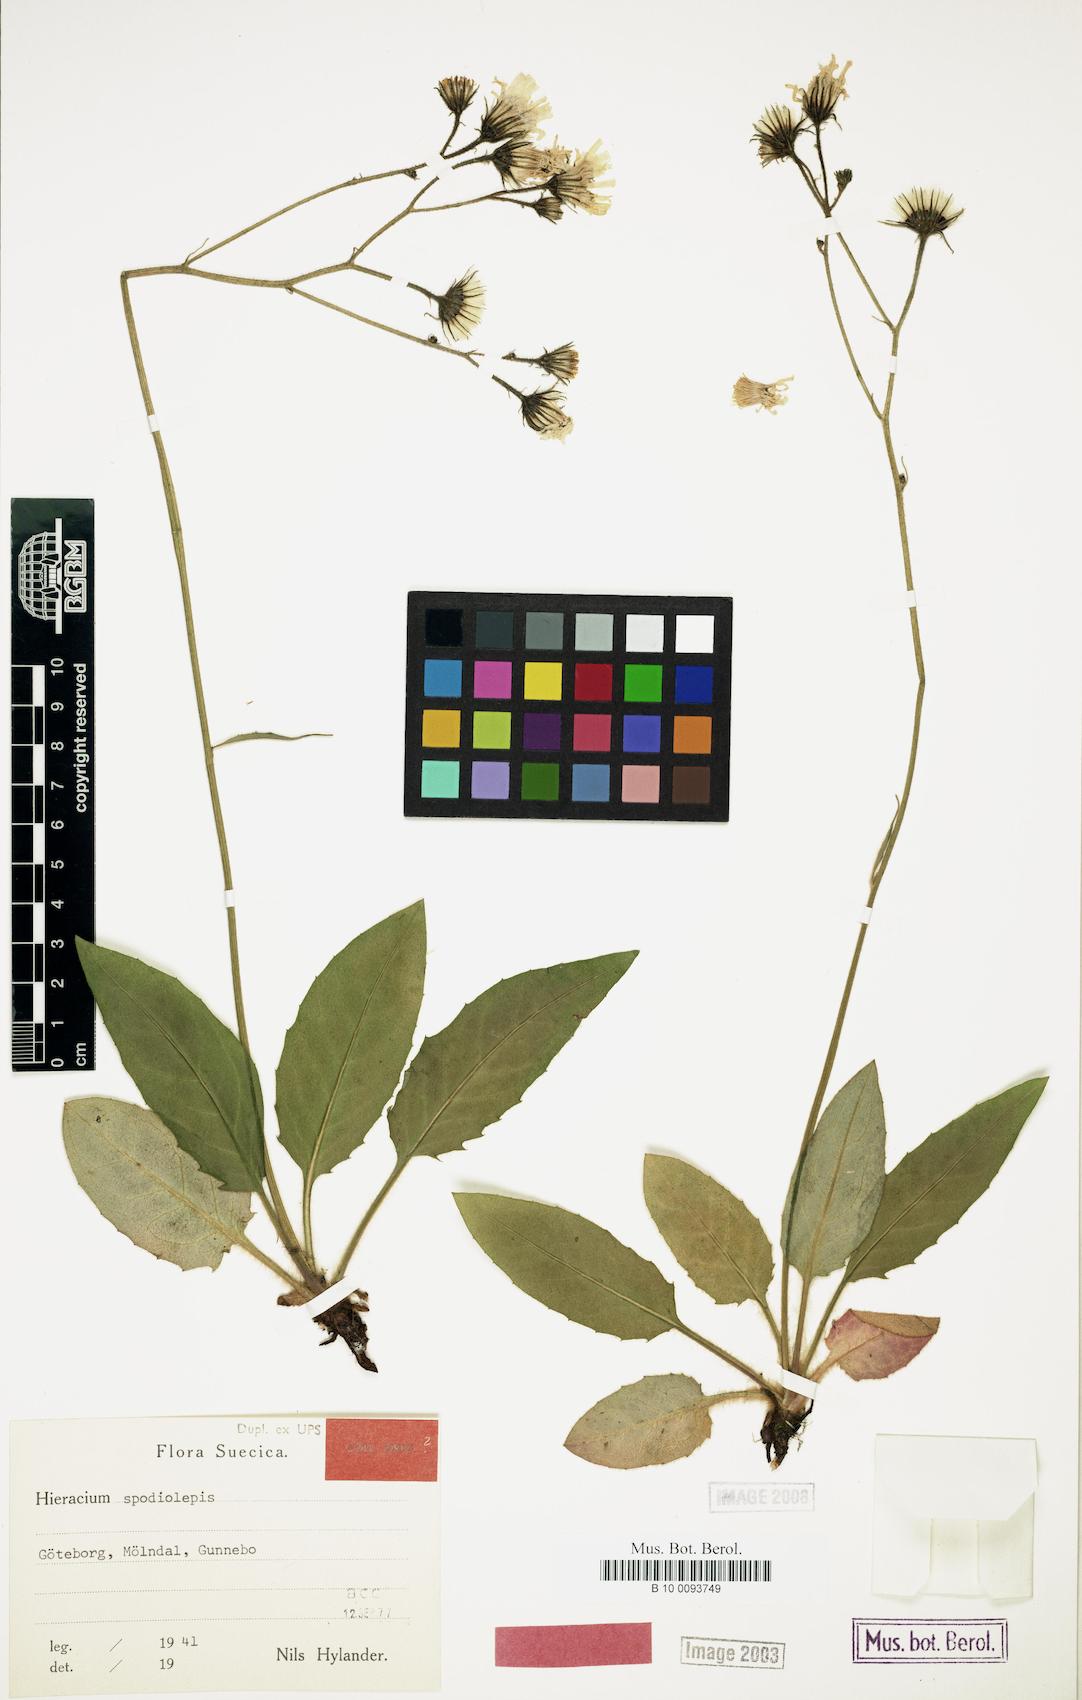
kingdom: Plantae
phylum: Tracheophyta
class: Magnoliopsida
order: Asterales
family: Asteraceae
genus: Hieracium
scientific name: Hieracium spodiolepis
